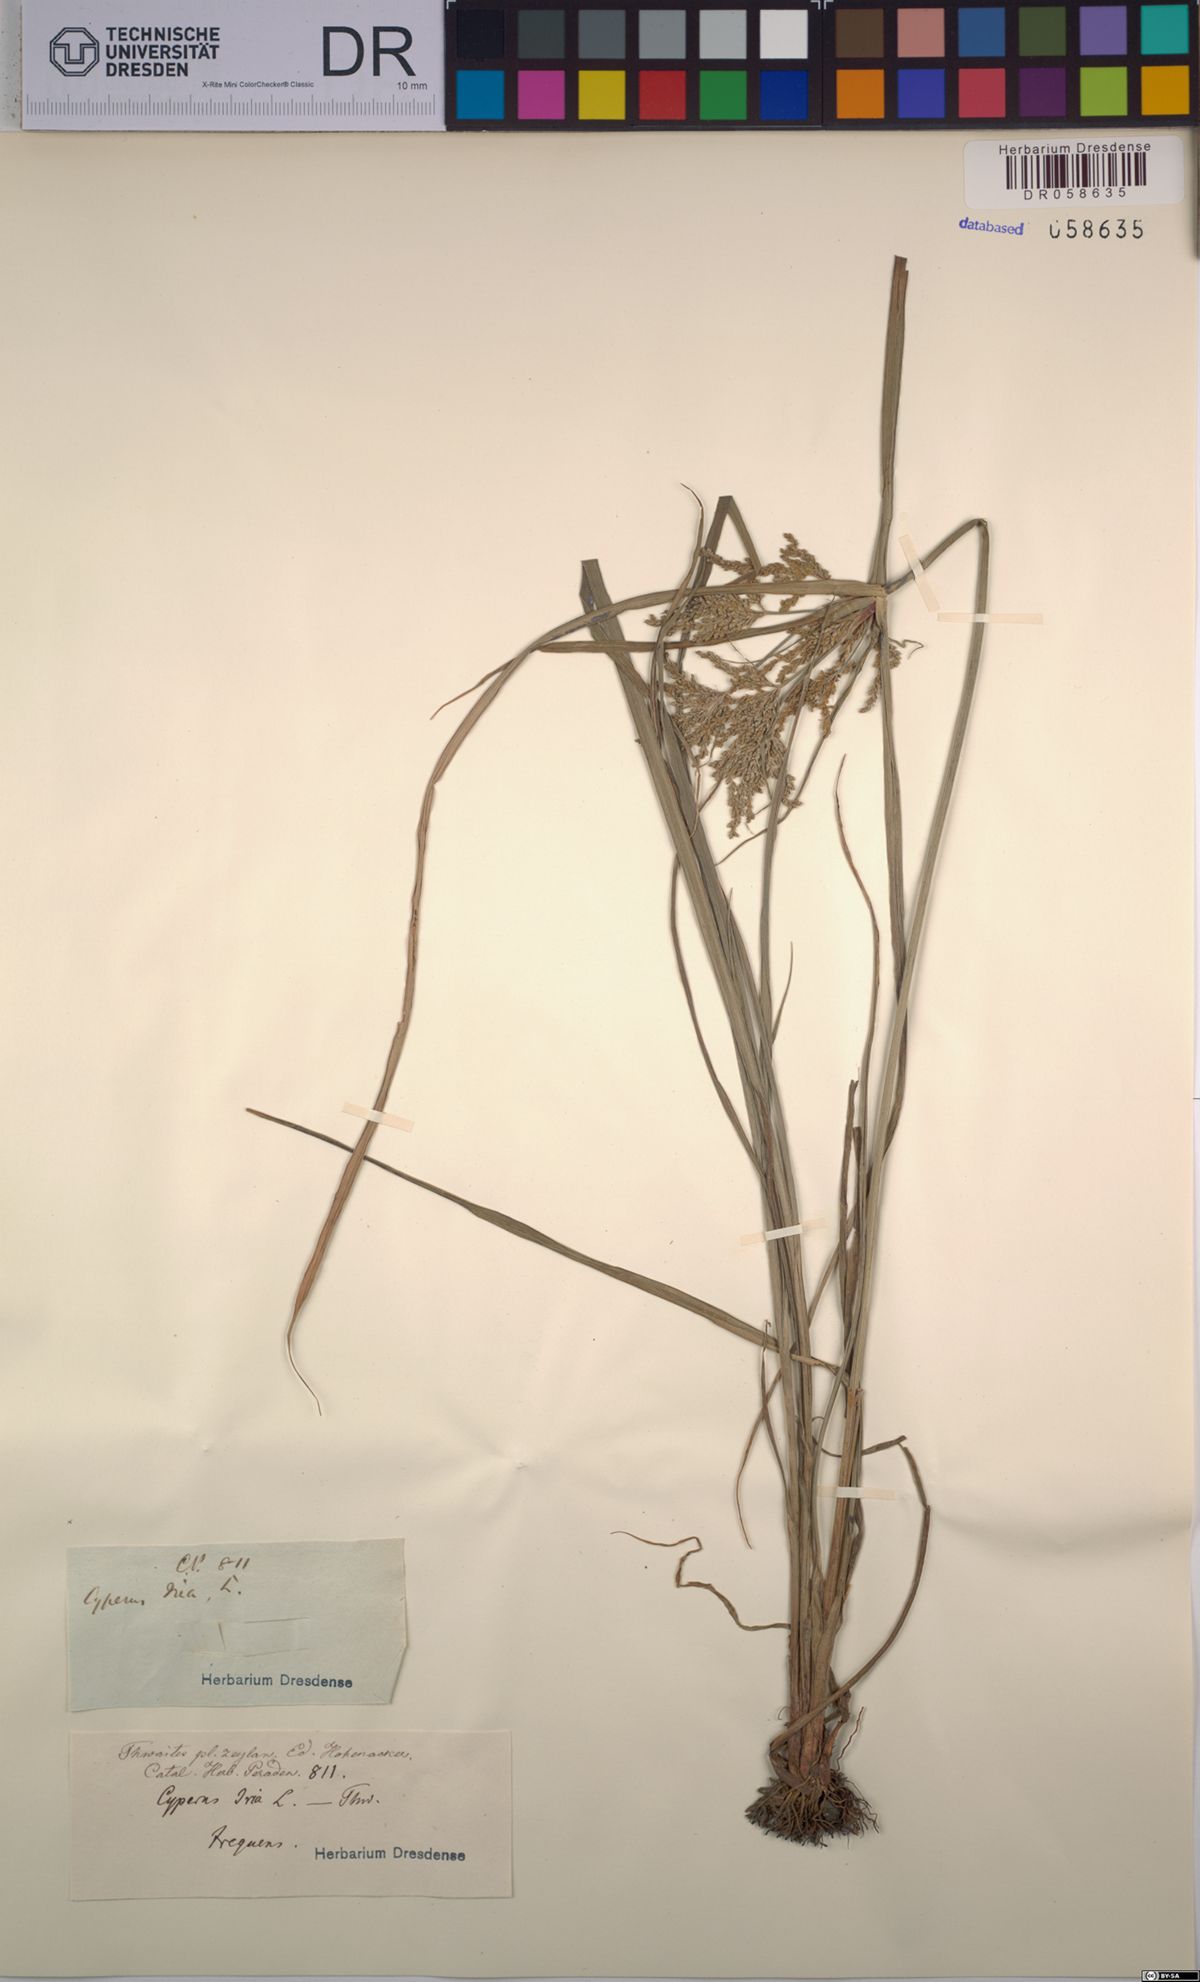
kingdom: Plantae
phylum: Tracheophyta
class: Liliopsida
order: Poales
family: Cyperaceae
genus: Cyperus
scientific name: Cyperus iria
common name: Ricefield flatsedge
